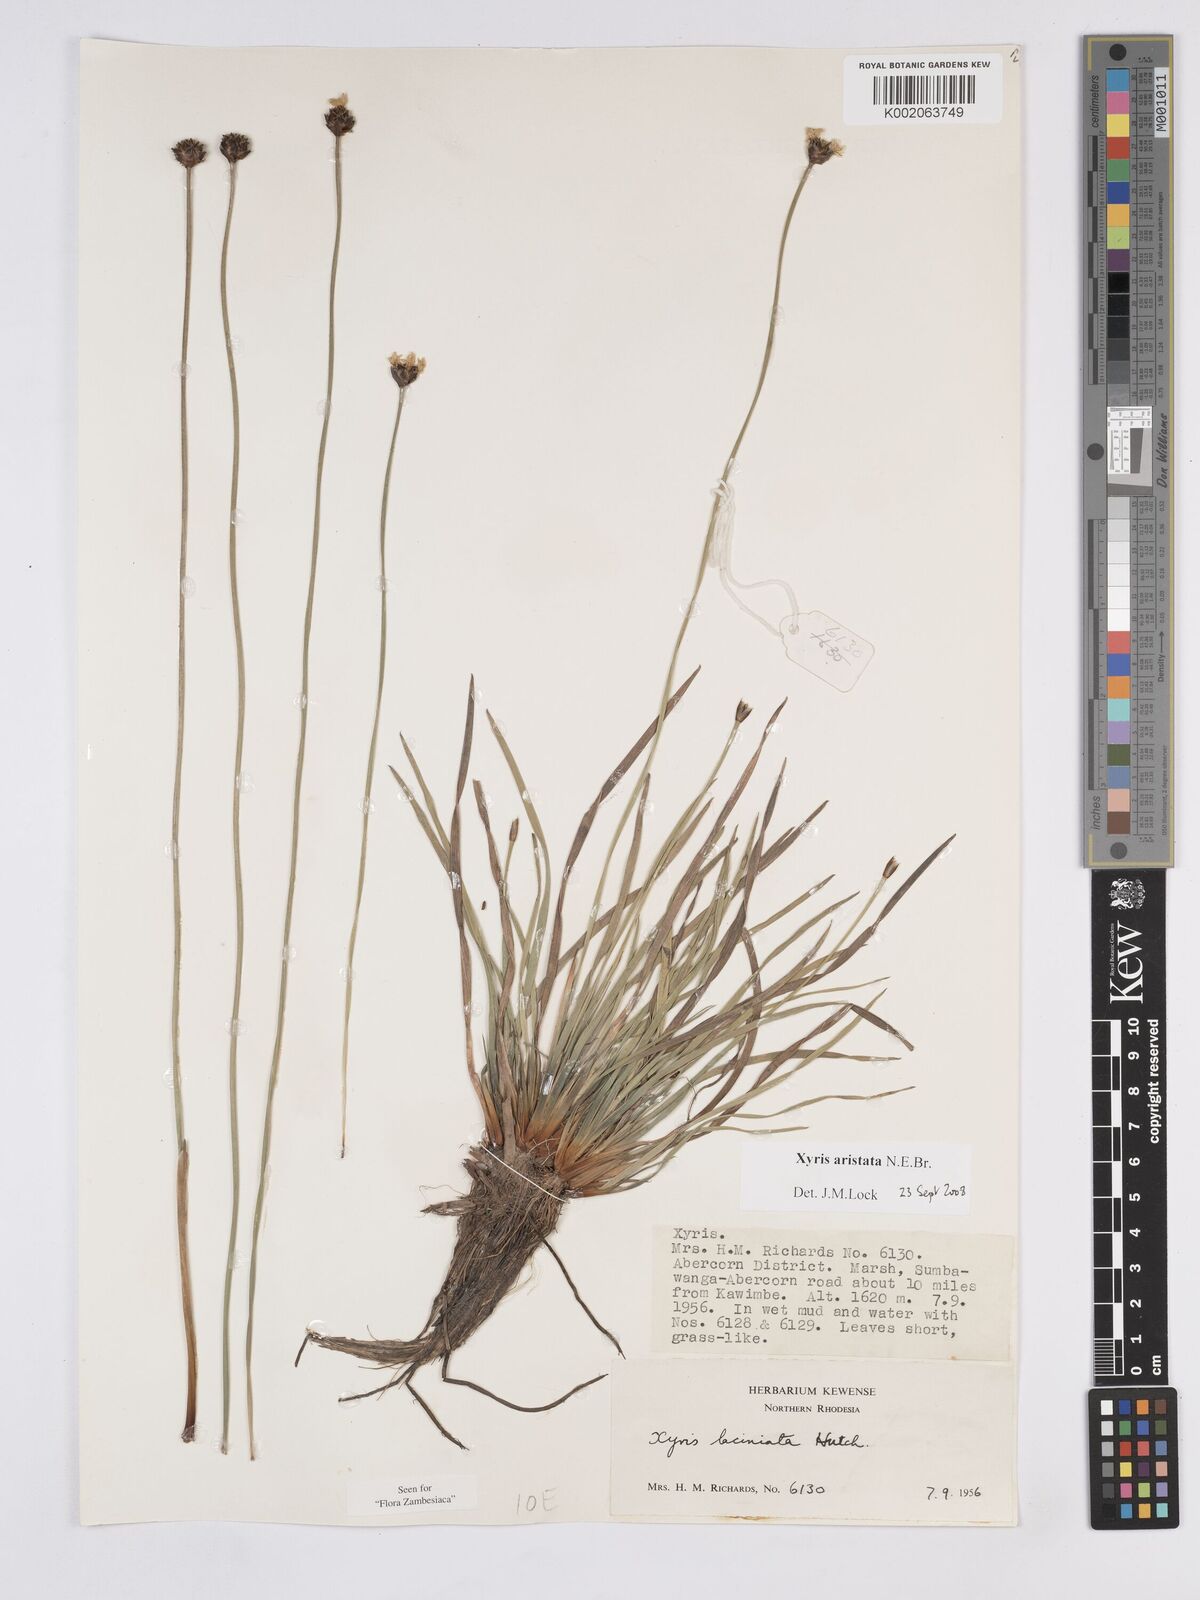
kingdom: Plantae
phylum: Tracheophyta
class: Liliopsida
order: Poales
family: Xyridaceae
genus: Xyris
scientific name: Xyris aristata
